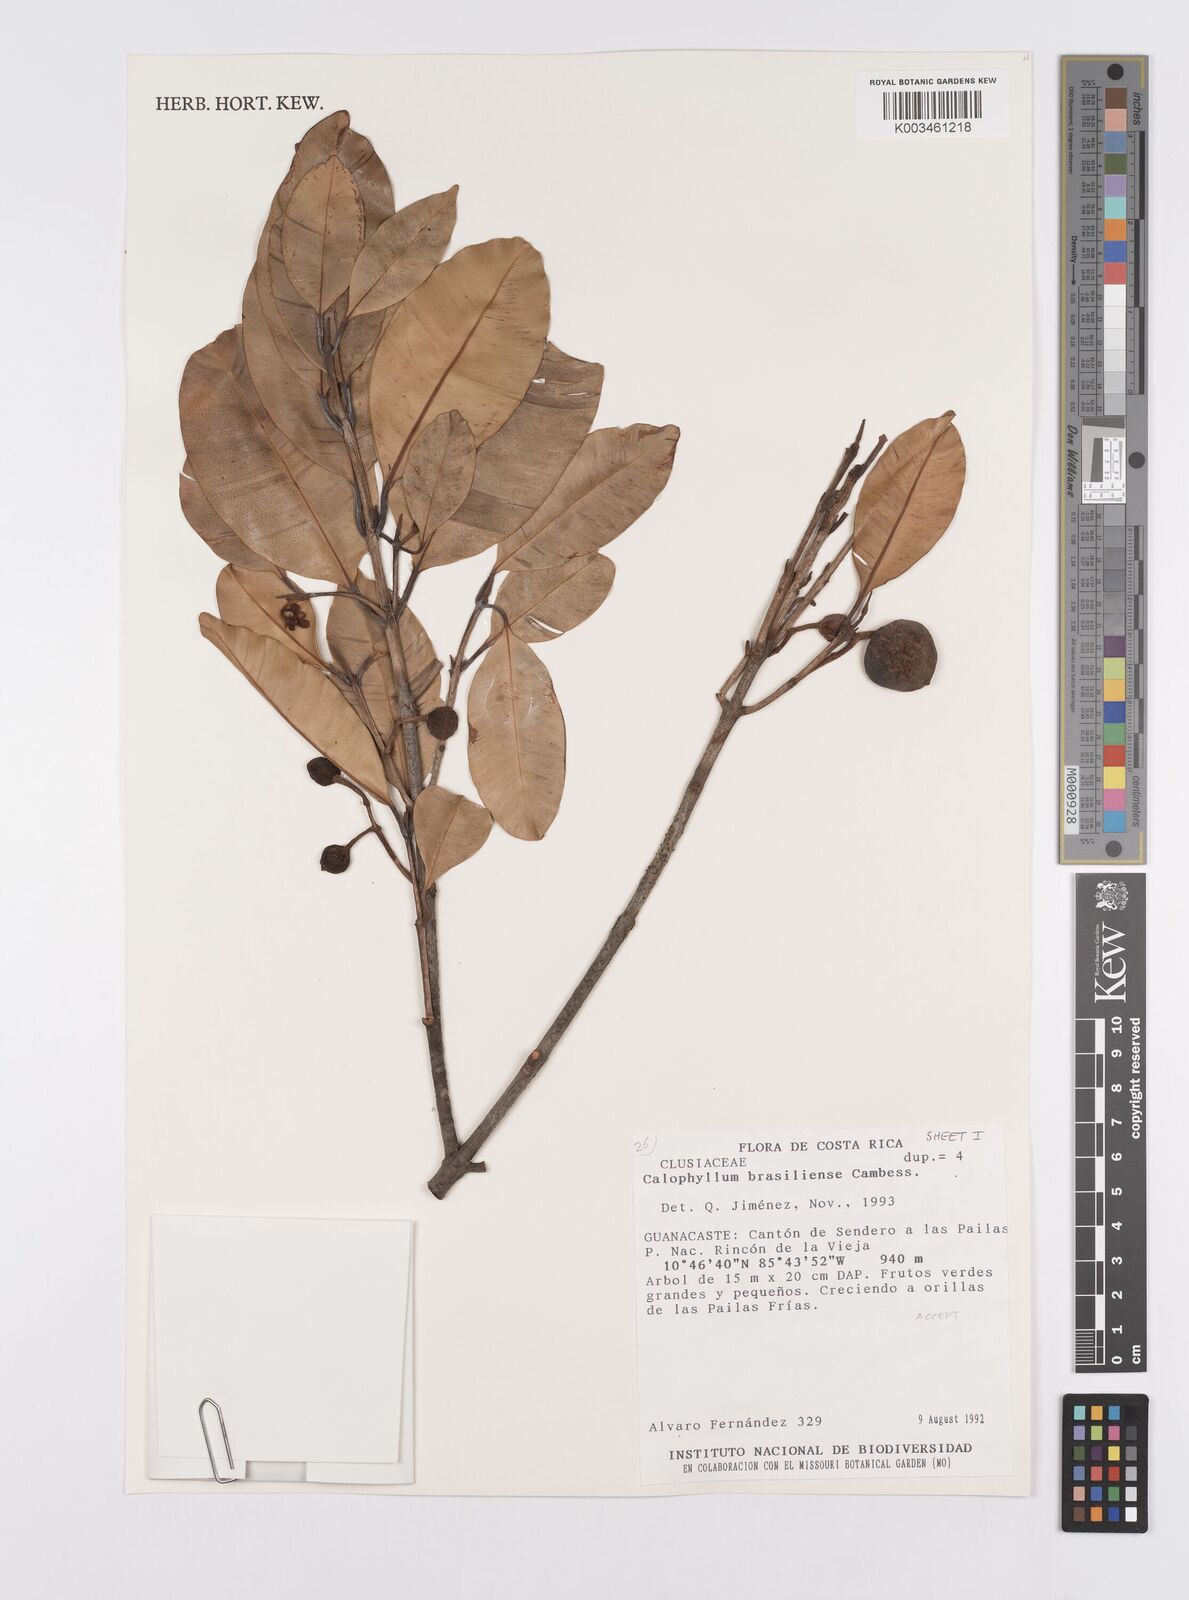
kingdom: Plantae
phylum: Tracheophyta
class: Magnoliopsida
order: Malpighiales
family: Calophyllaceae
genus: Calophyllum
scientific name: Calophyllum brasiliense
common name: Santa maria
